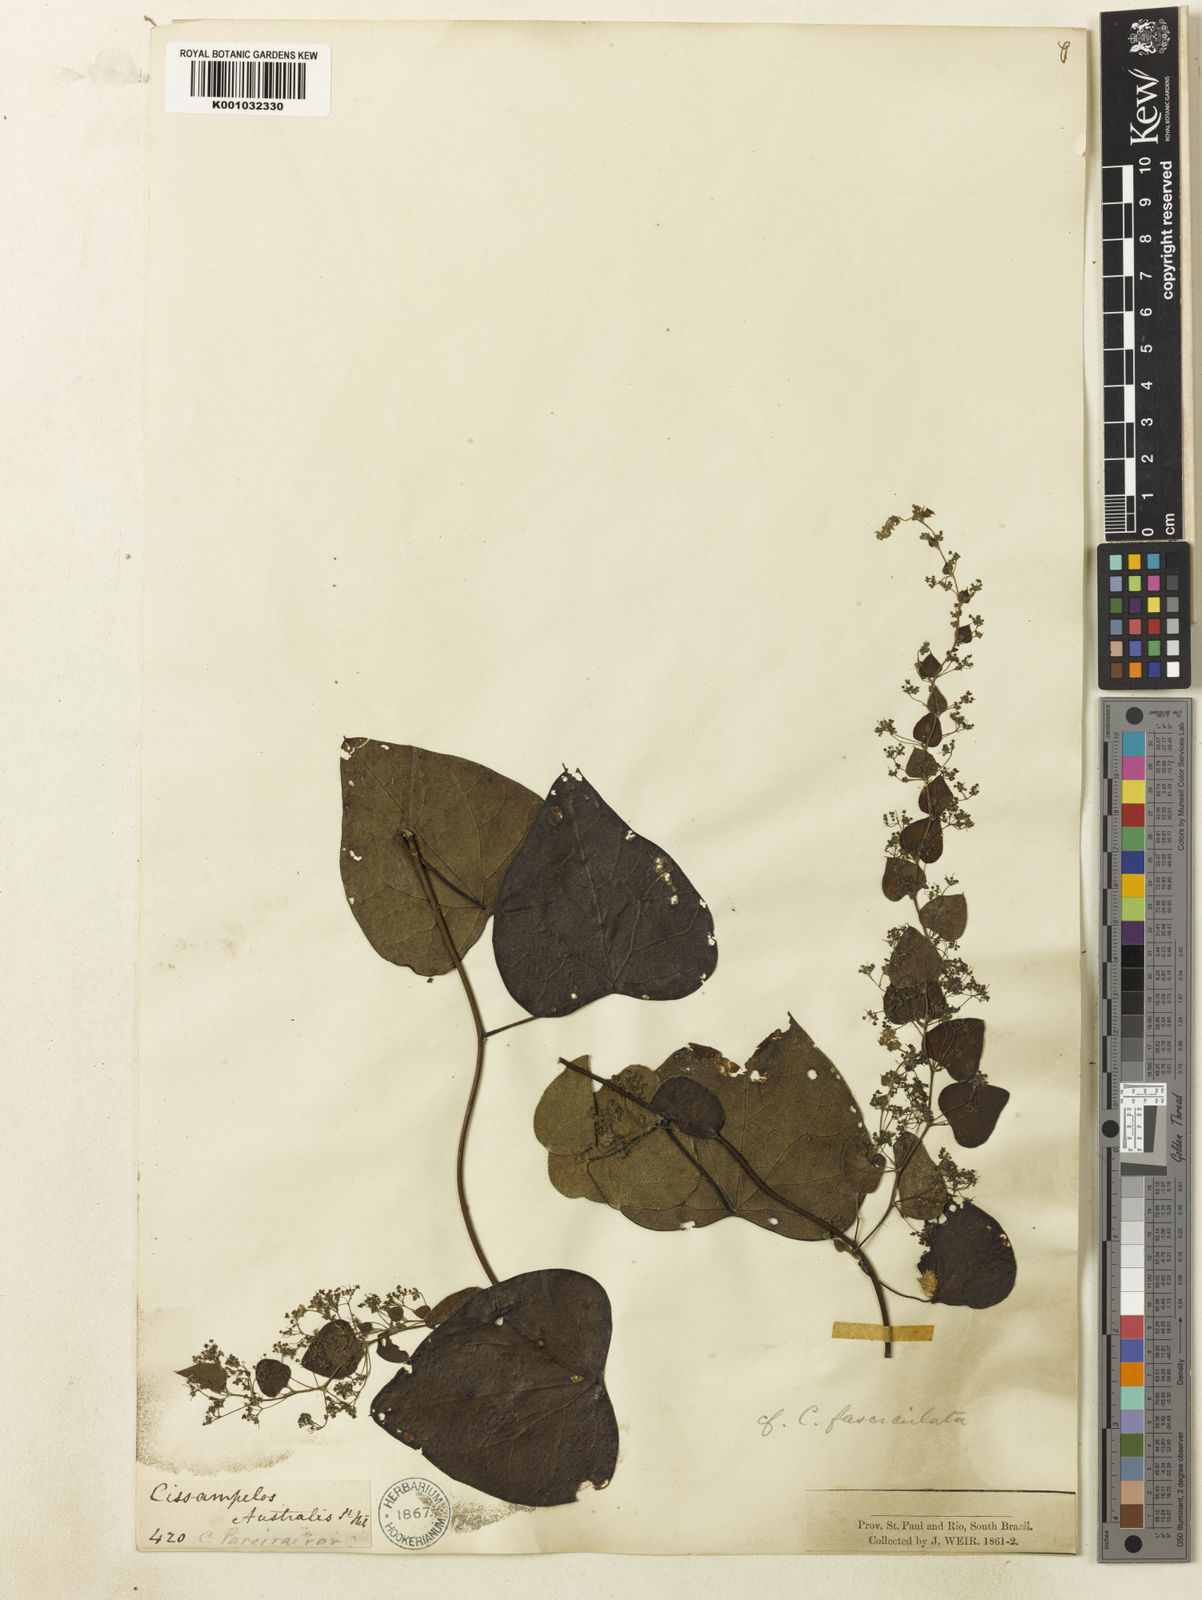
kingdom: Plantae
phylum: Tracheophyta
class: Magnoliopsida
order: Ranunculales
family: Menispermaceae
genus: Cissampelos
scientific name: Cissampelos fasciculata
